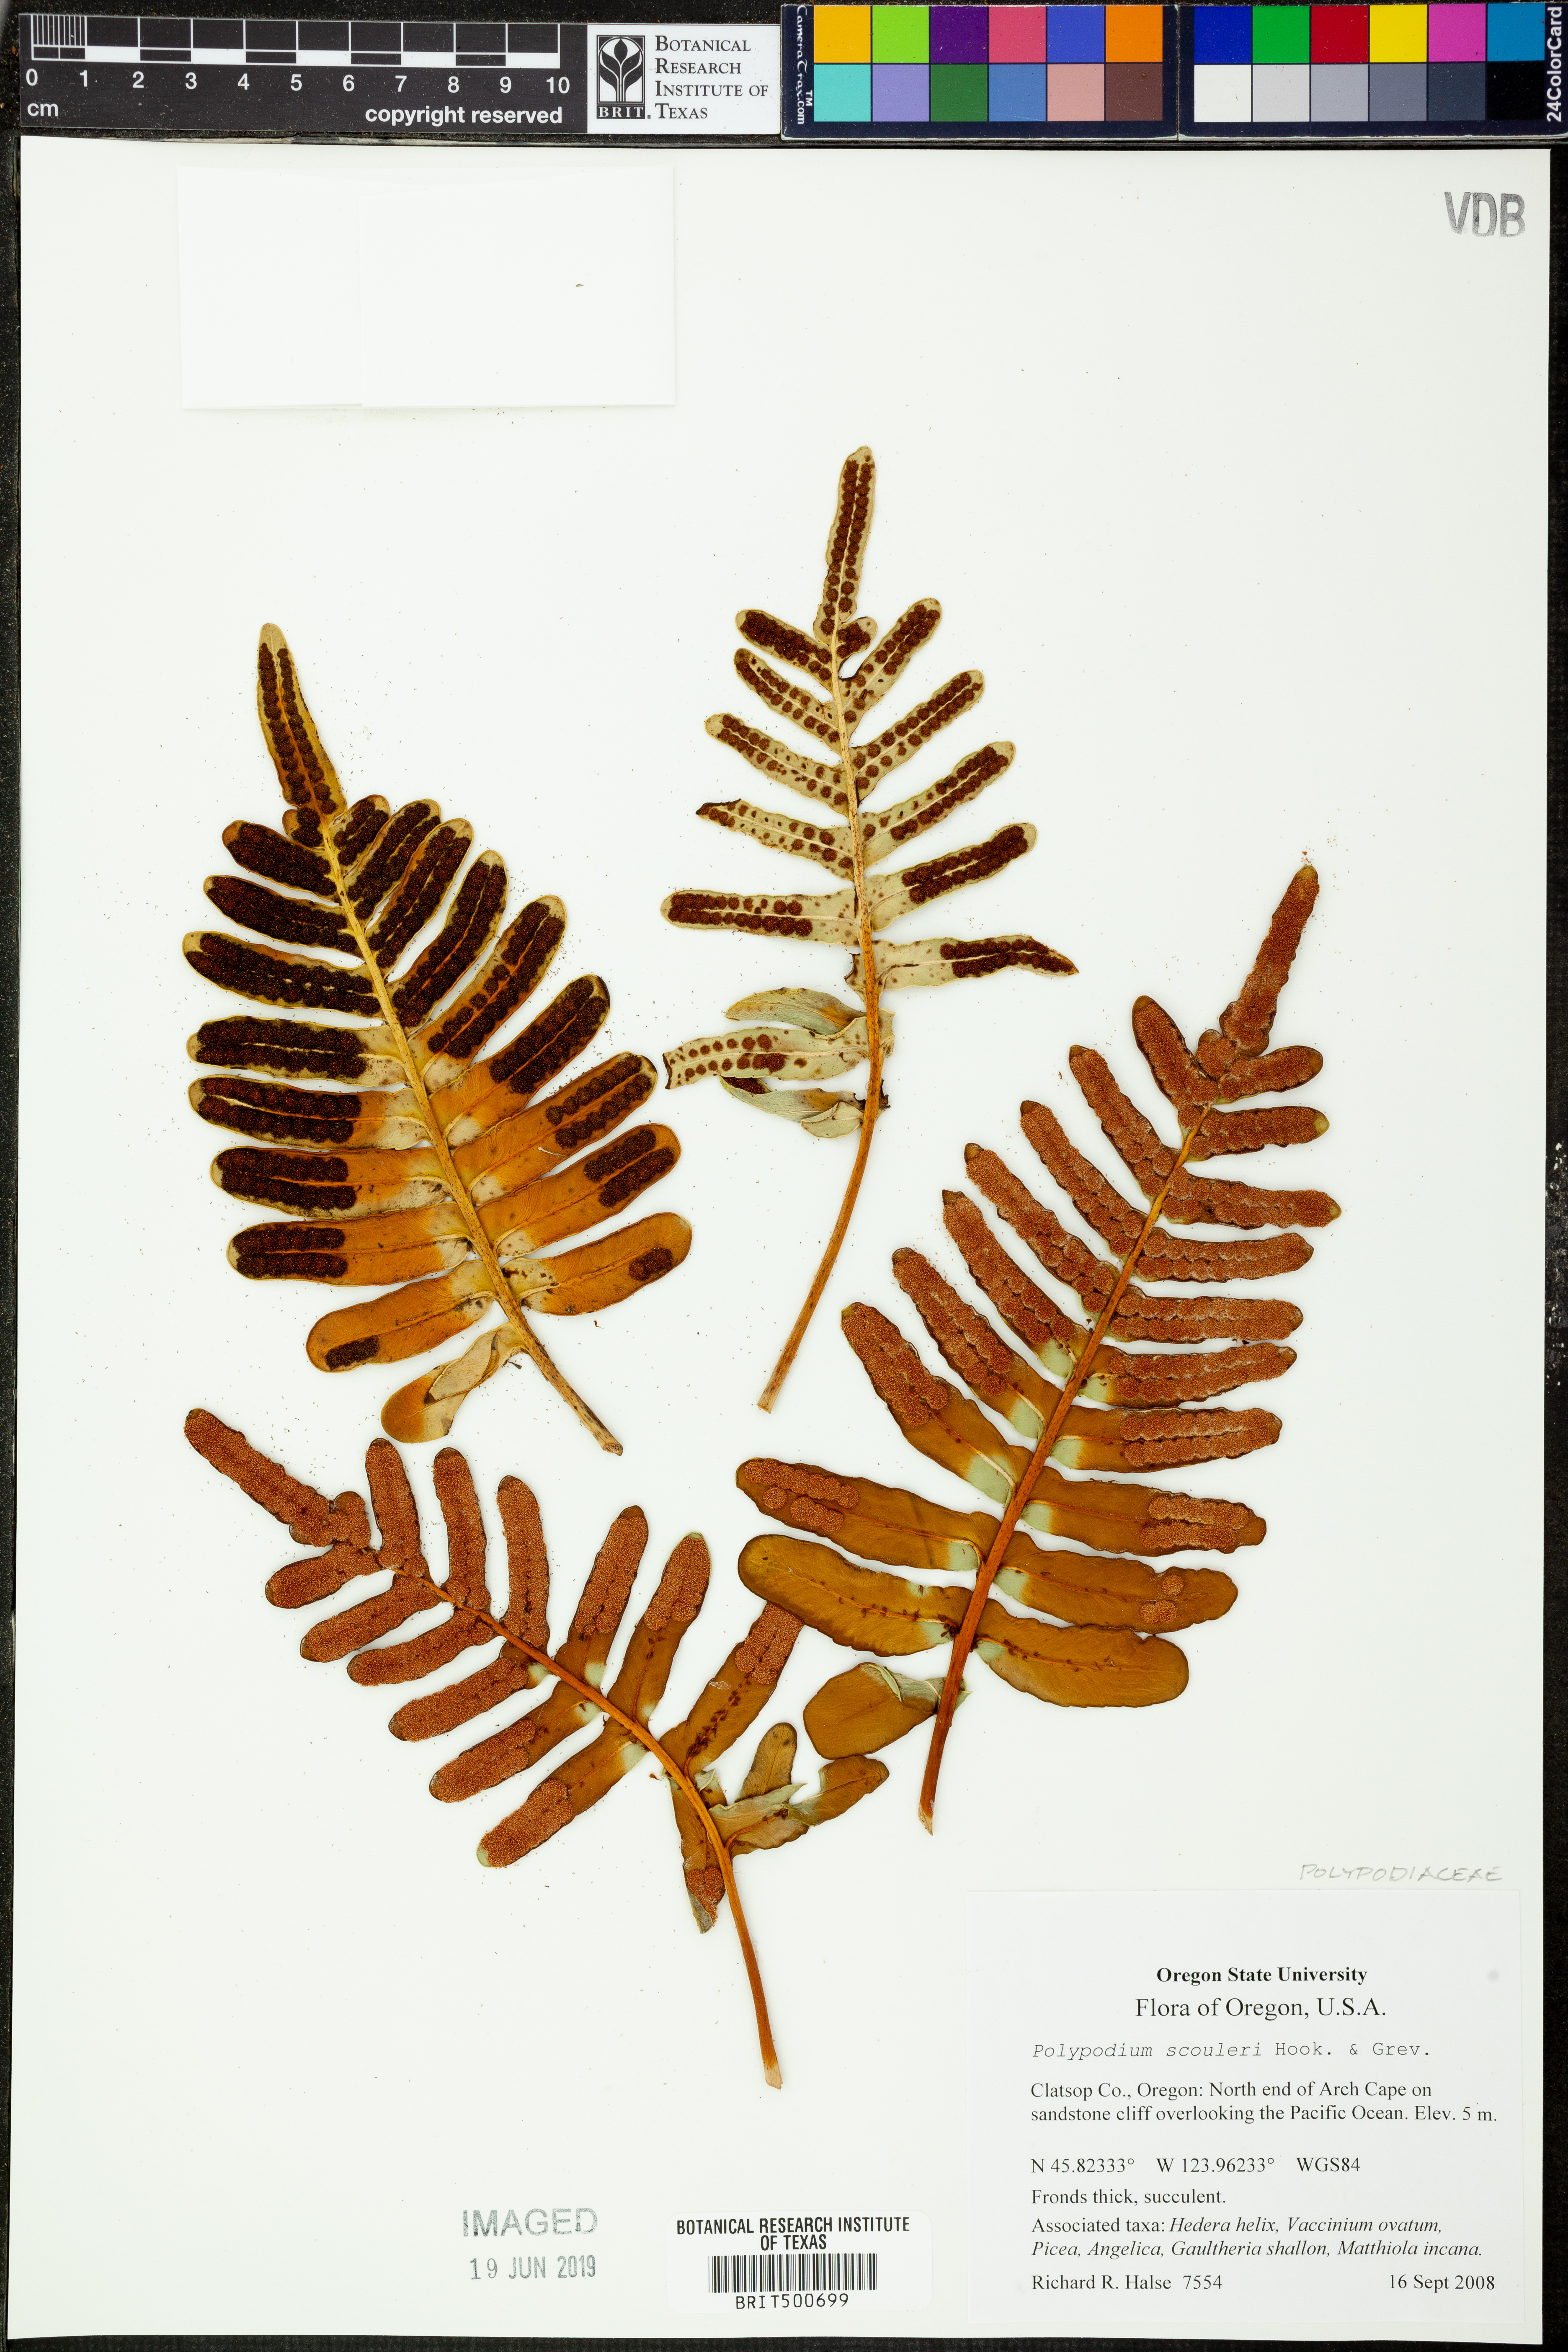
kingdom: Plantae
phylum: Tracheophyta
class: Polypodiopsida
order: Polypodiales
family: Polypodiaceae
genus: Polypodium
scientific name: Polypodium scouleri
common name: Scouler's polypody
